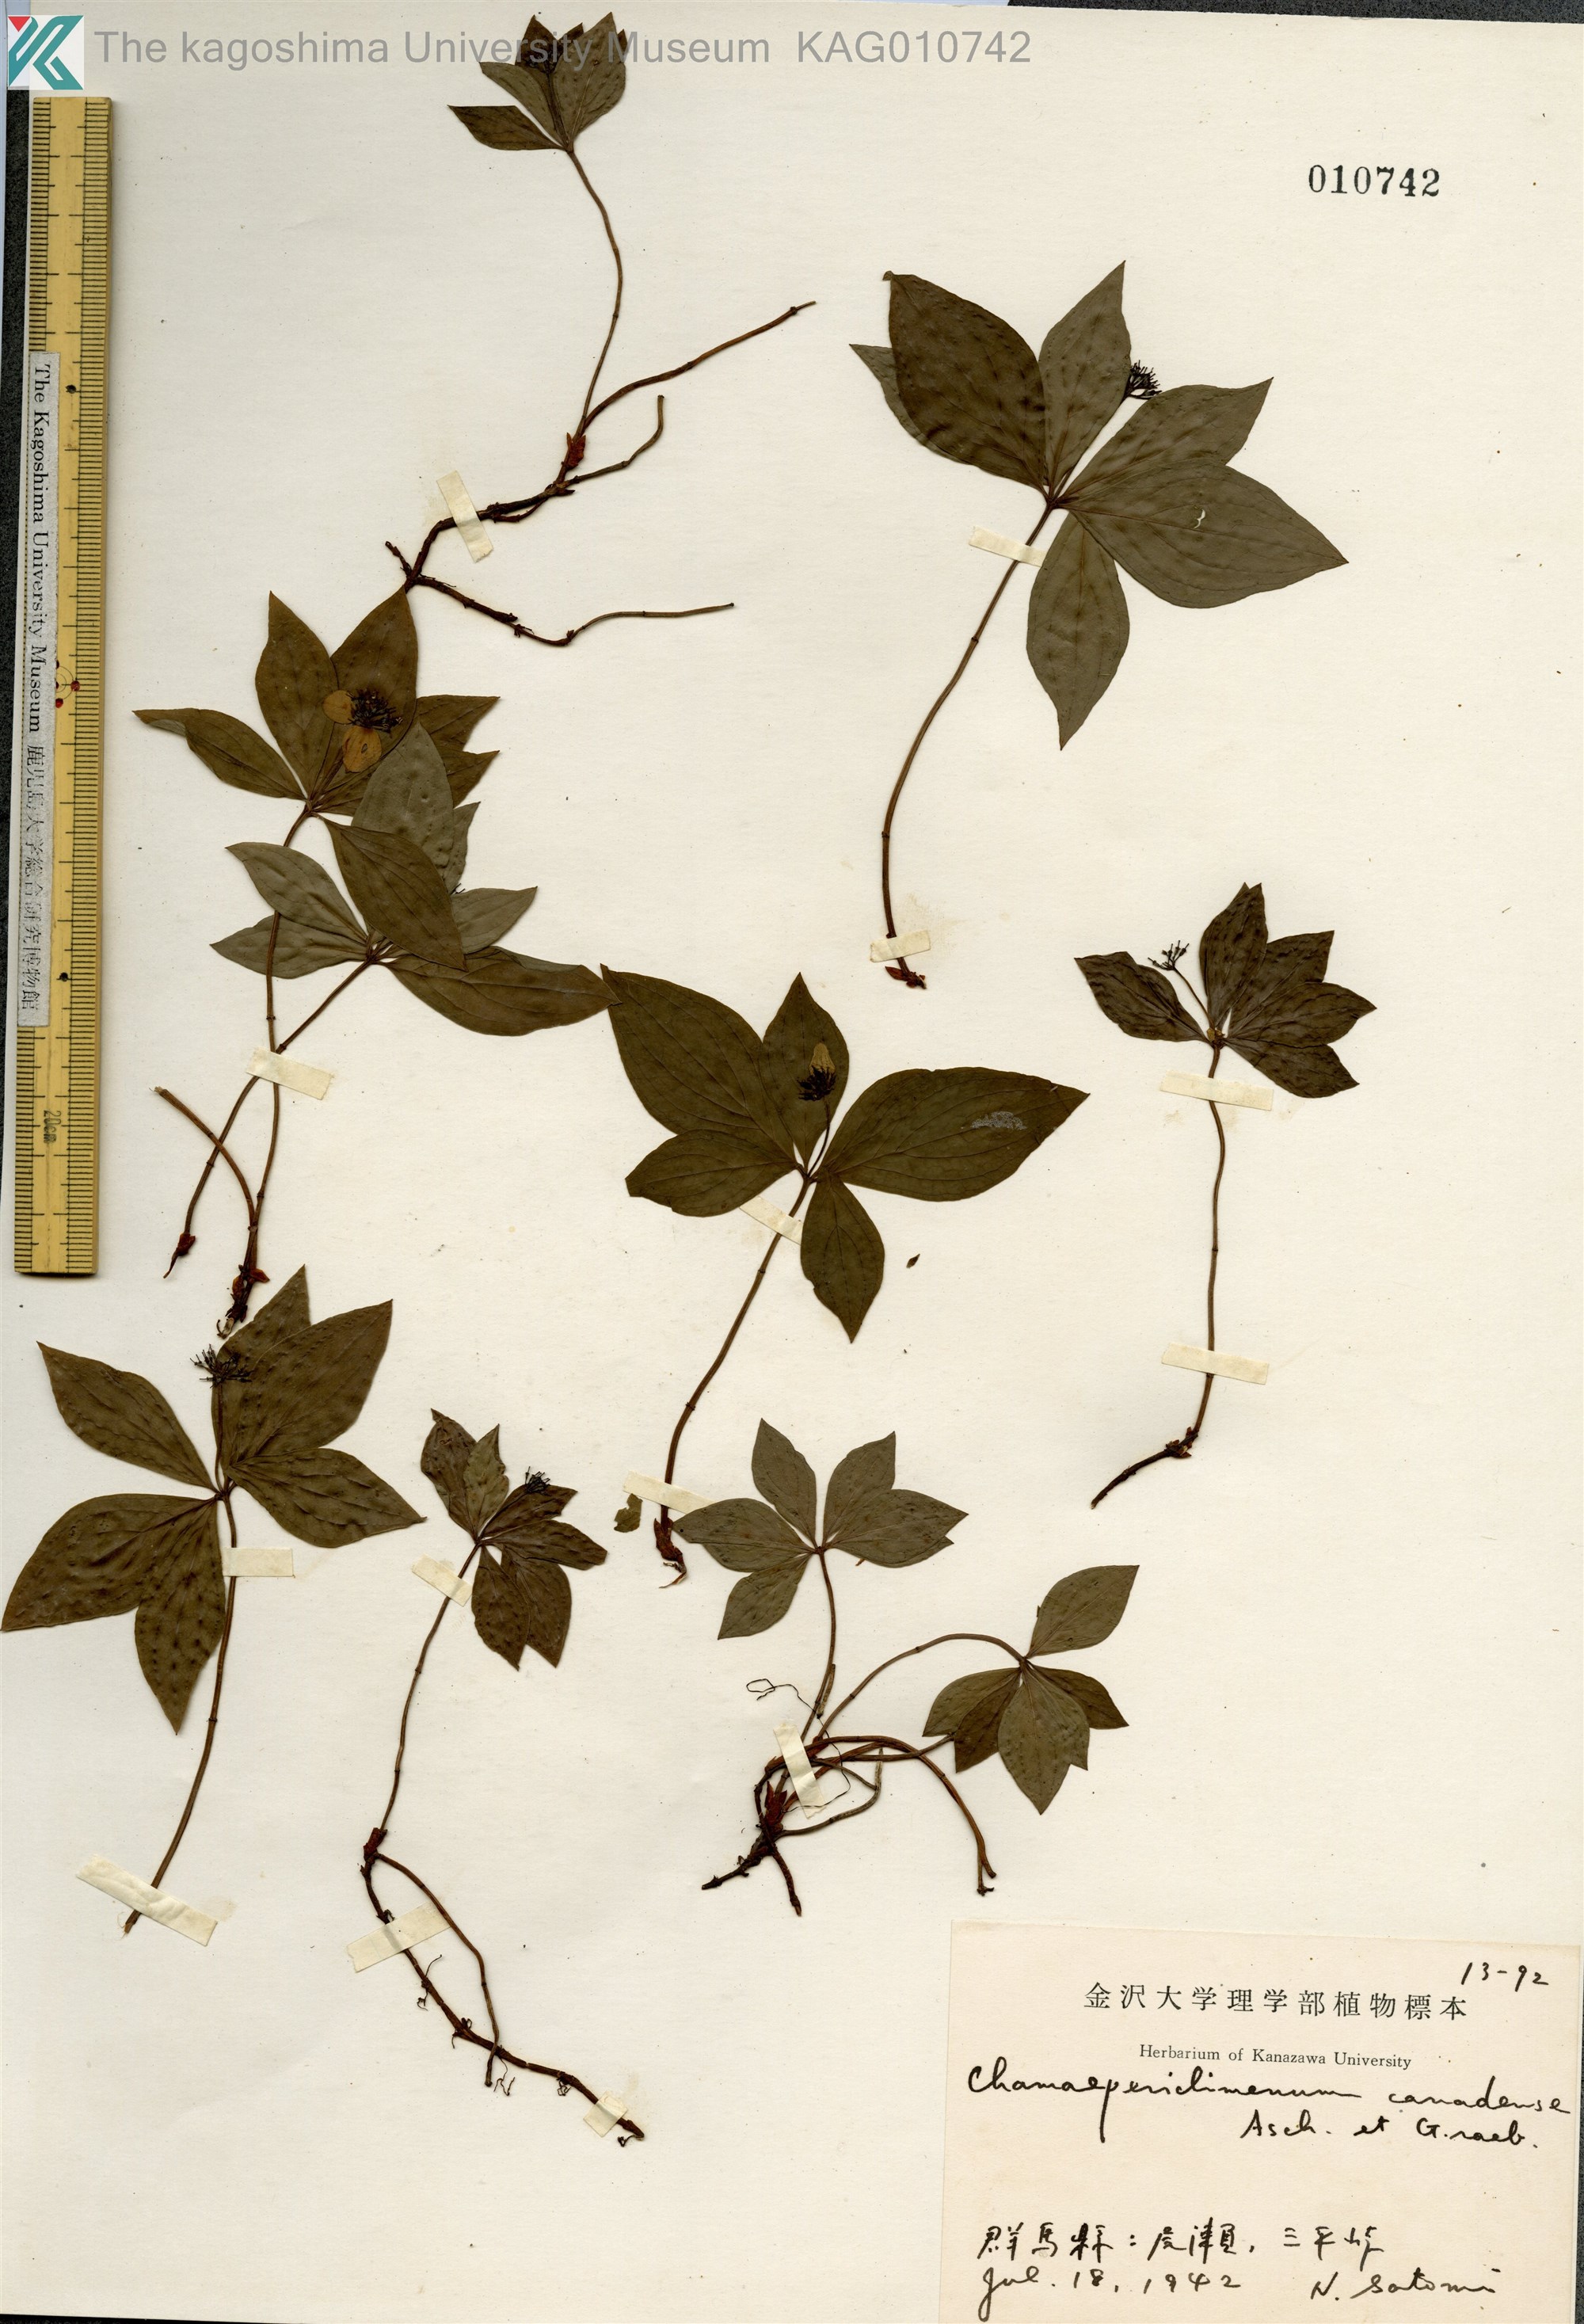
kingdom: Plantae
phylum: Tracheophyta
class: Magnoliopsida
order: Cornales
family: Cornaceae
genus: Cornus
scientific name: Cornus canadensis
